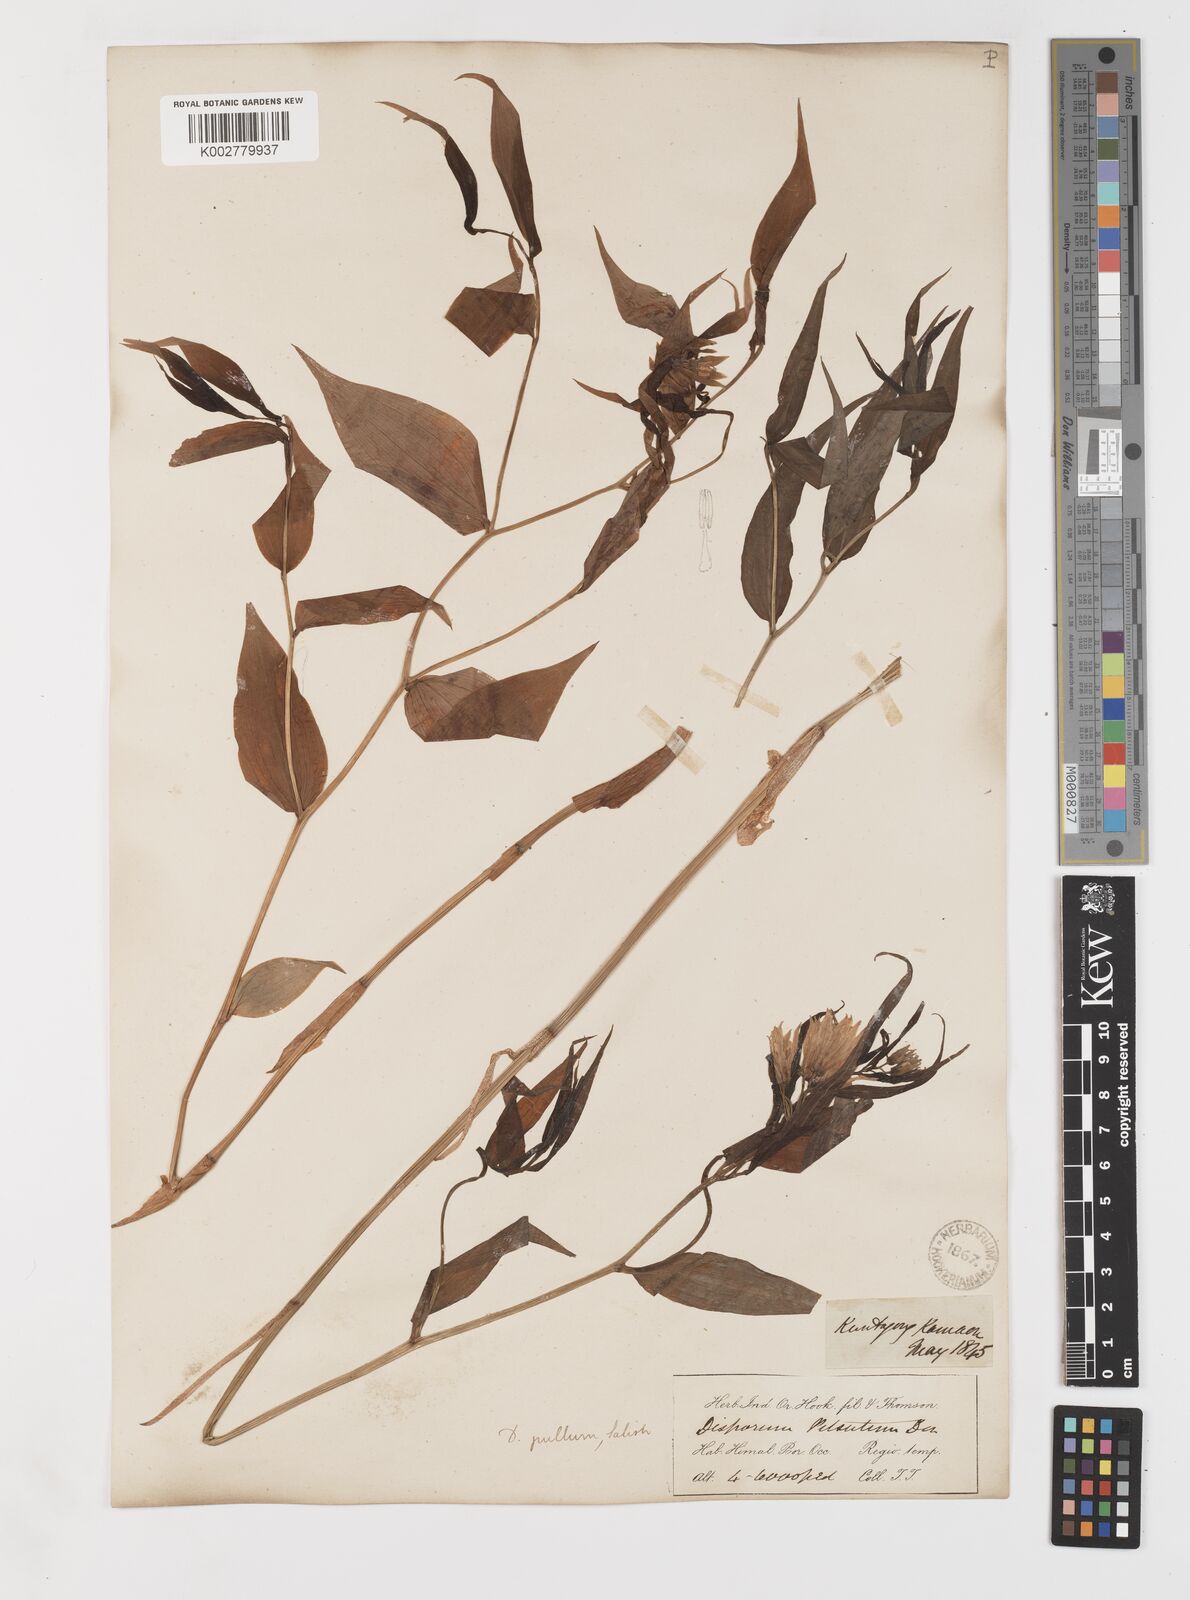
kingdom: Plantae
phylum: Tracheophyta
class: Liliopsida
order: Liliales
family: Colchicaceae
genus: Disporum
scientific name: Disporum cantoniense
